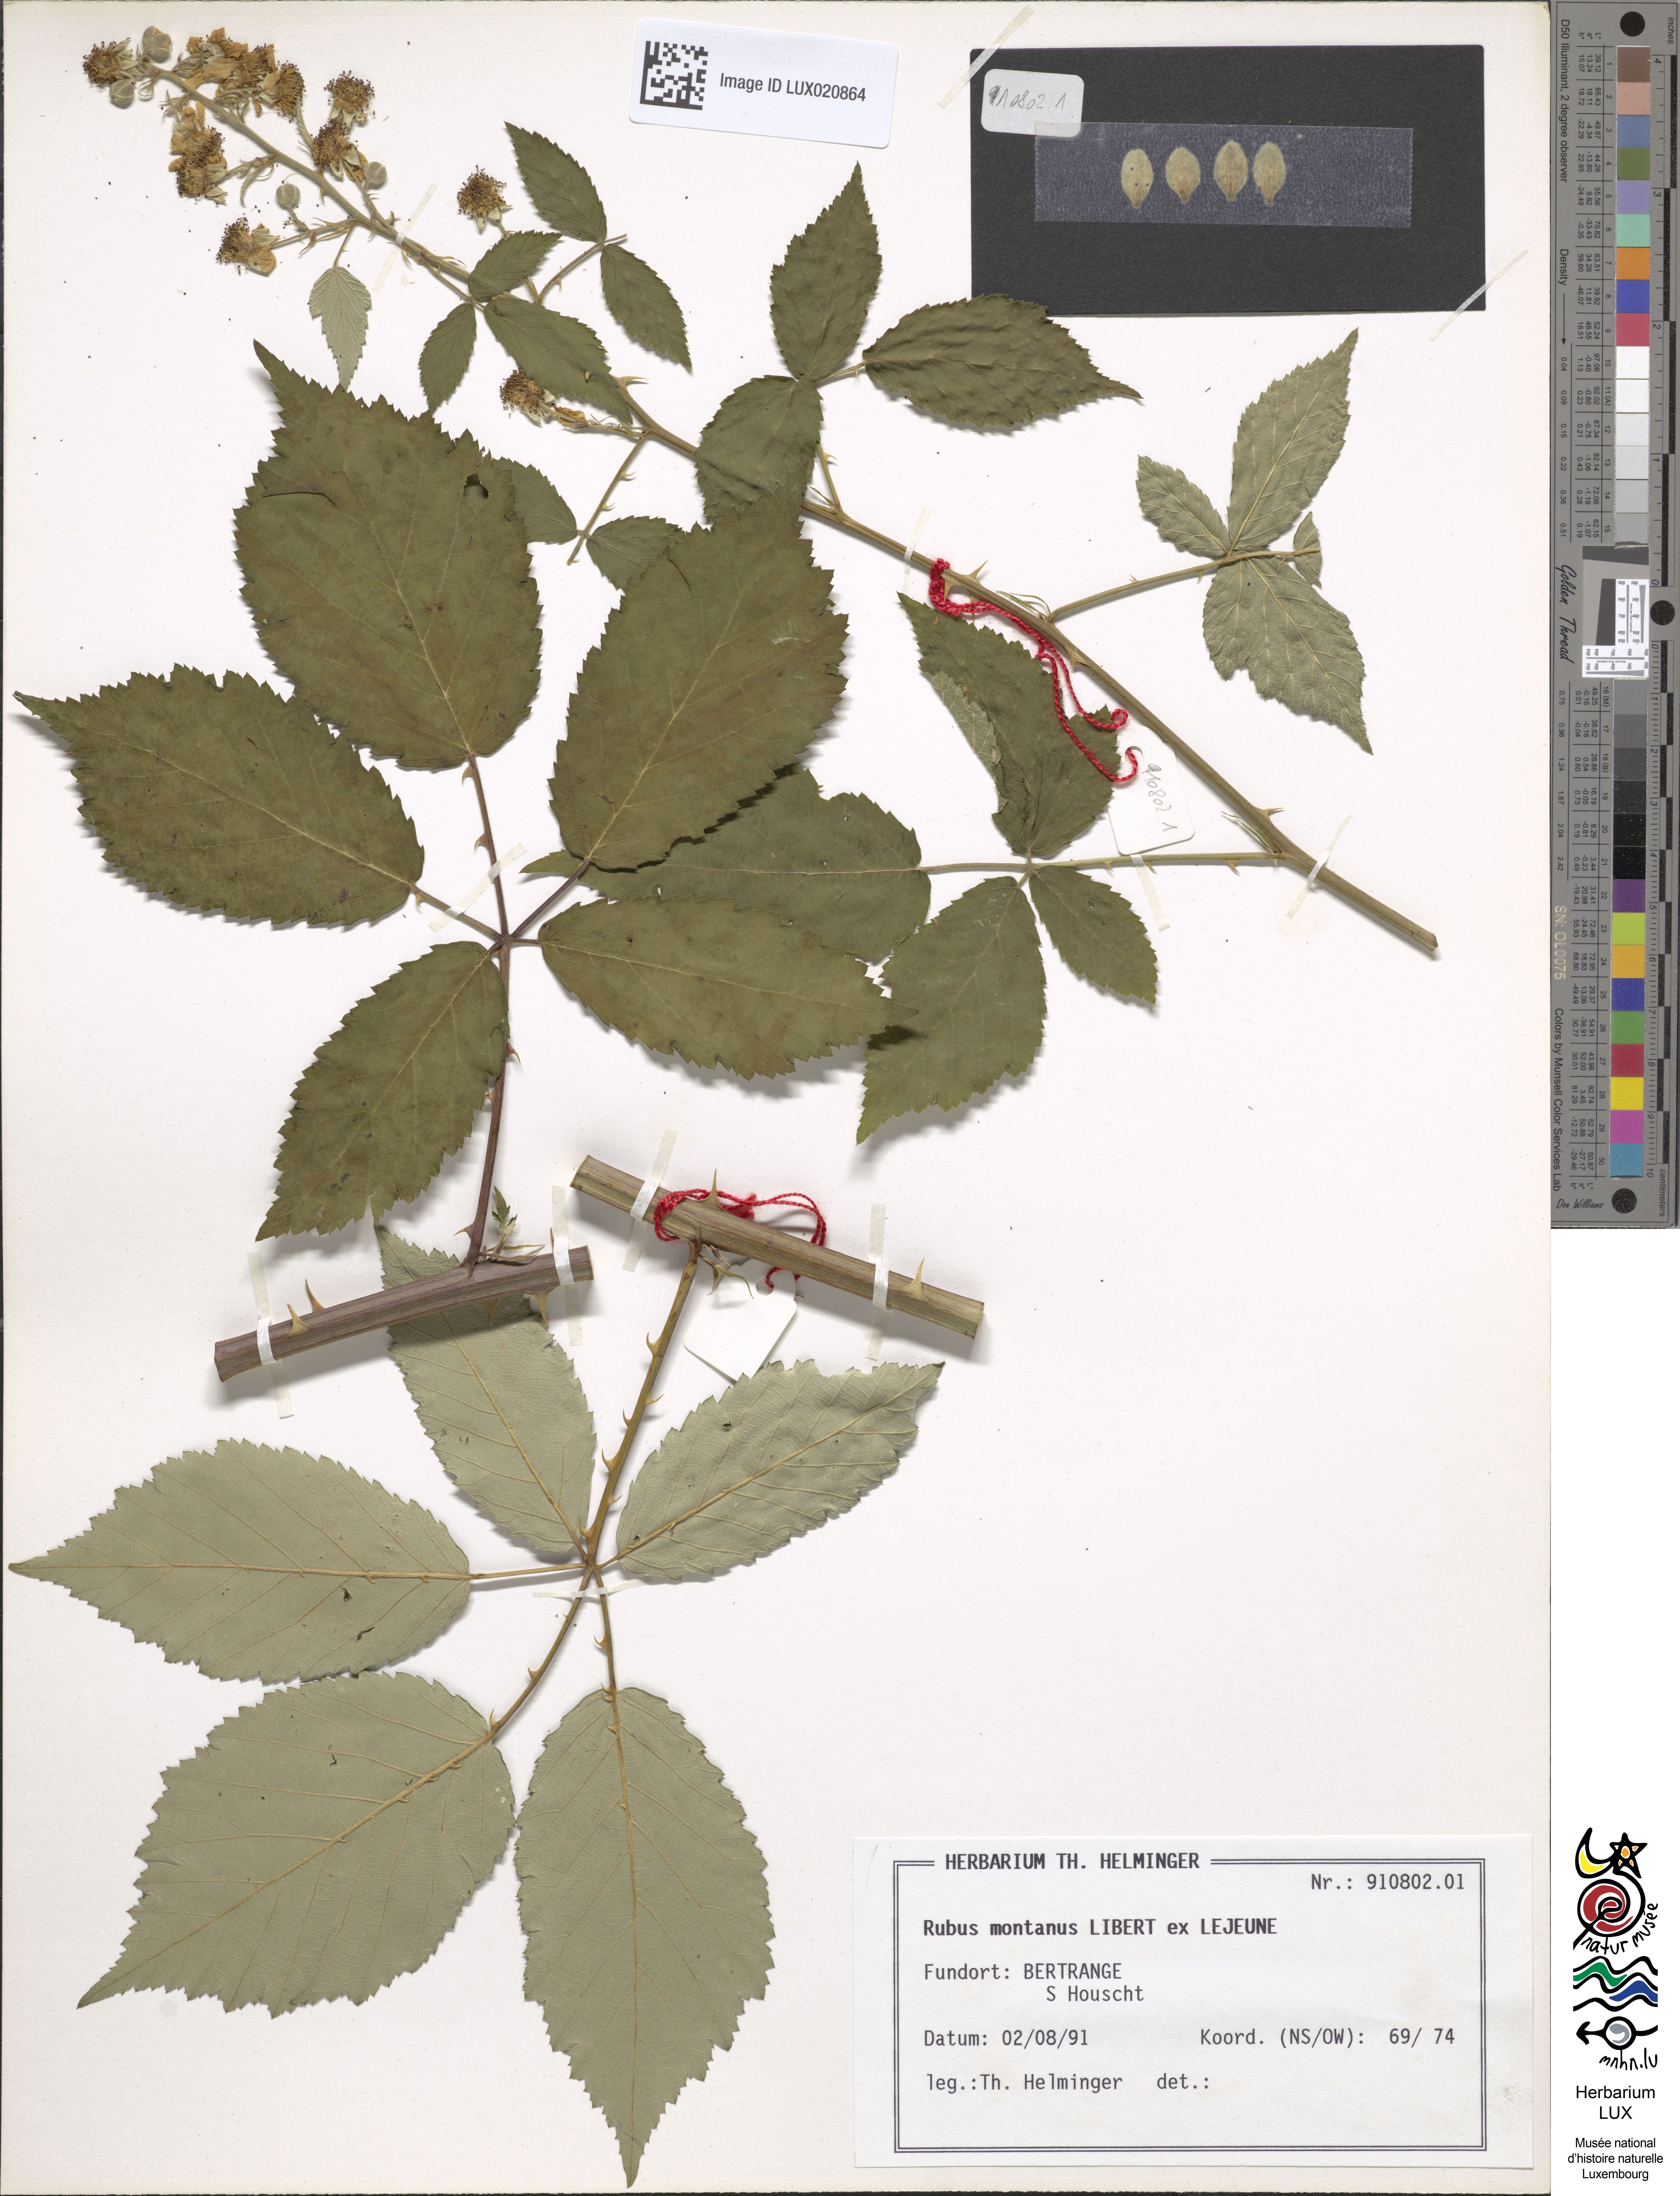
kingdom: Plantae
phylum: Tracheophyta
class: Magnoliopsida
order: Rosales
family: Rosaceae
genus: Rubus
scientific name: Rubus montanus
